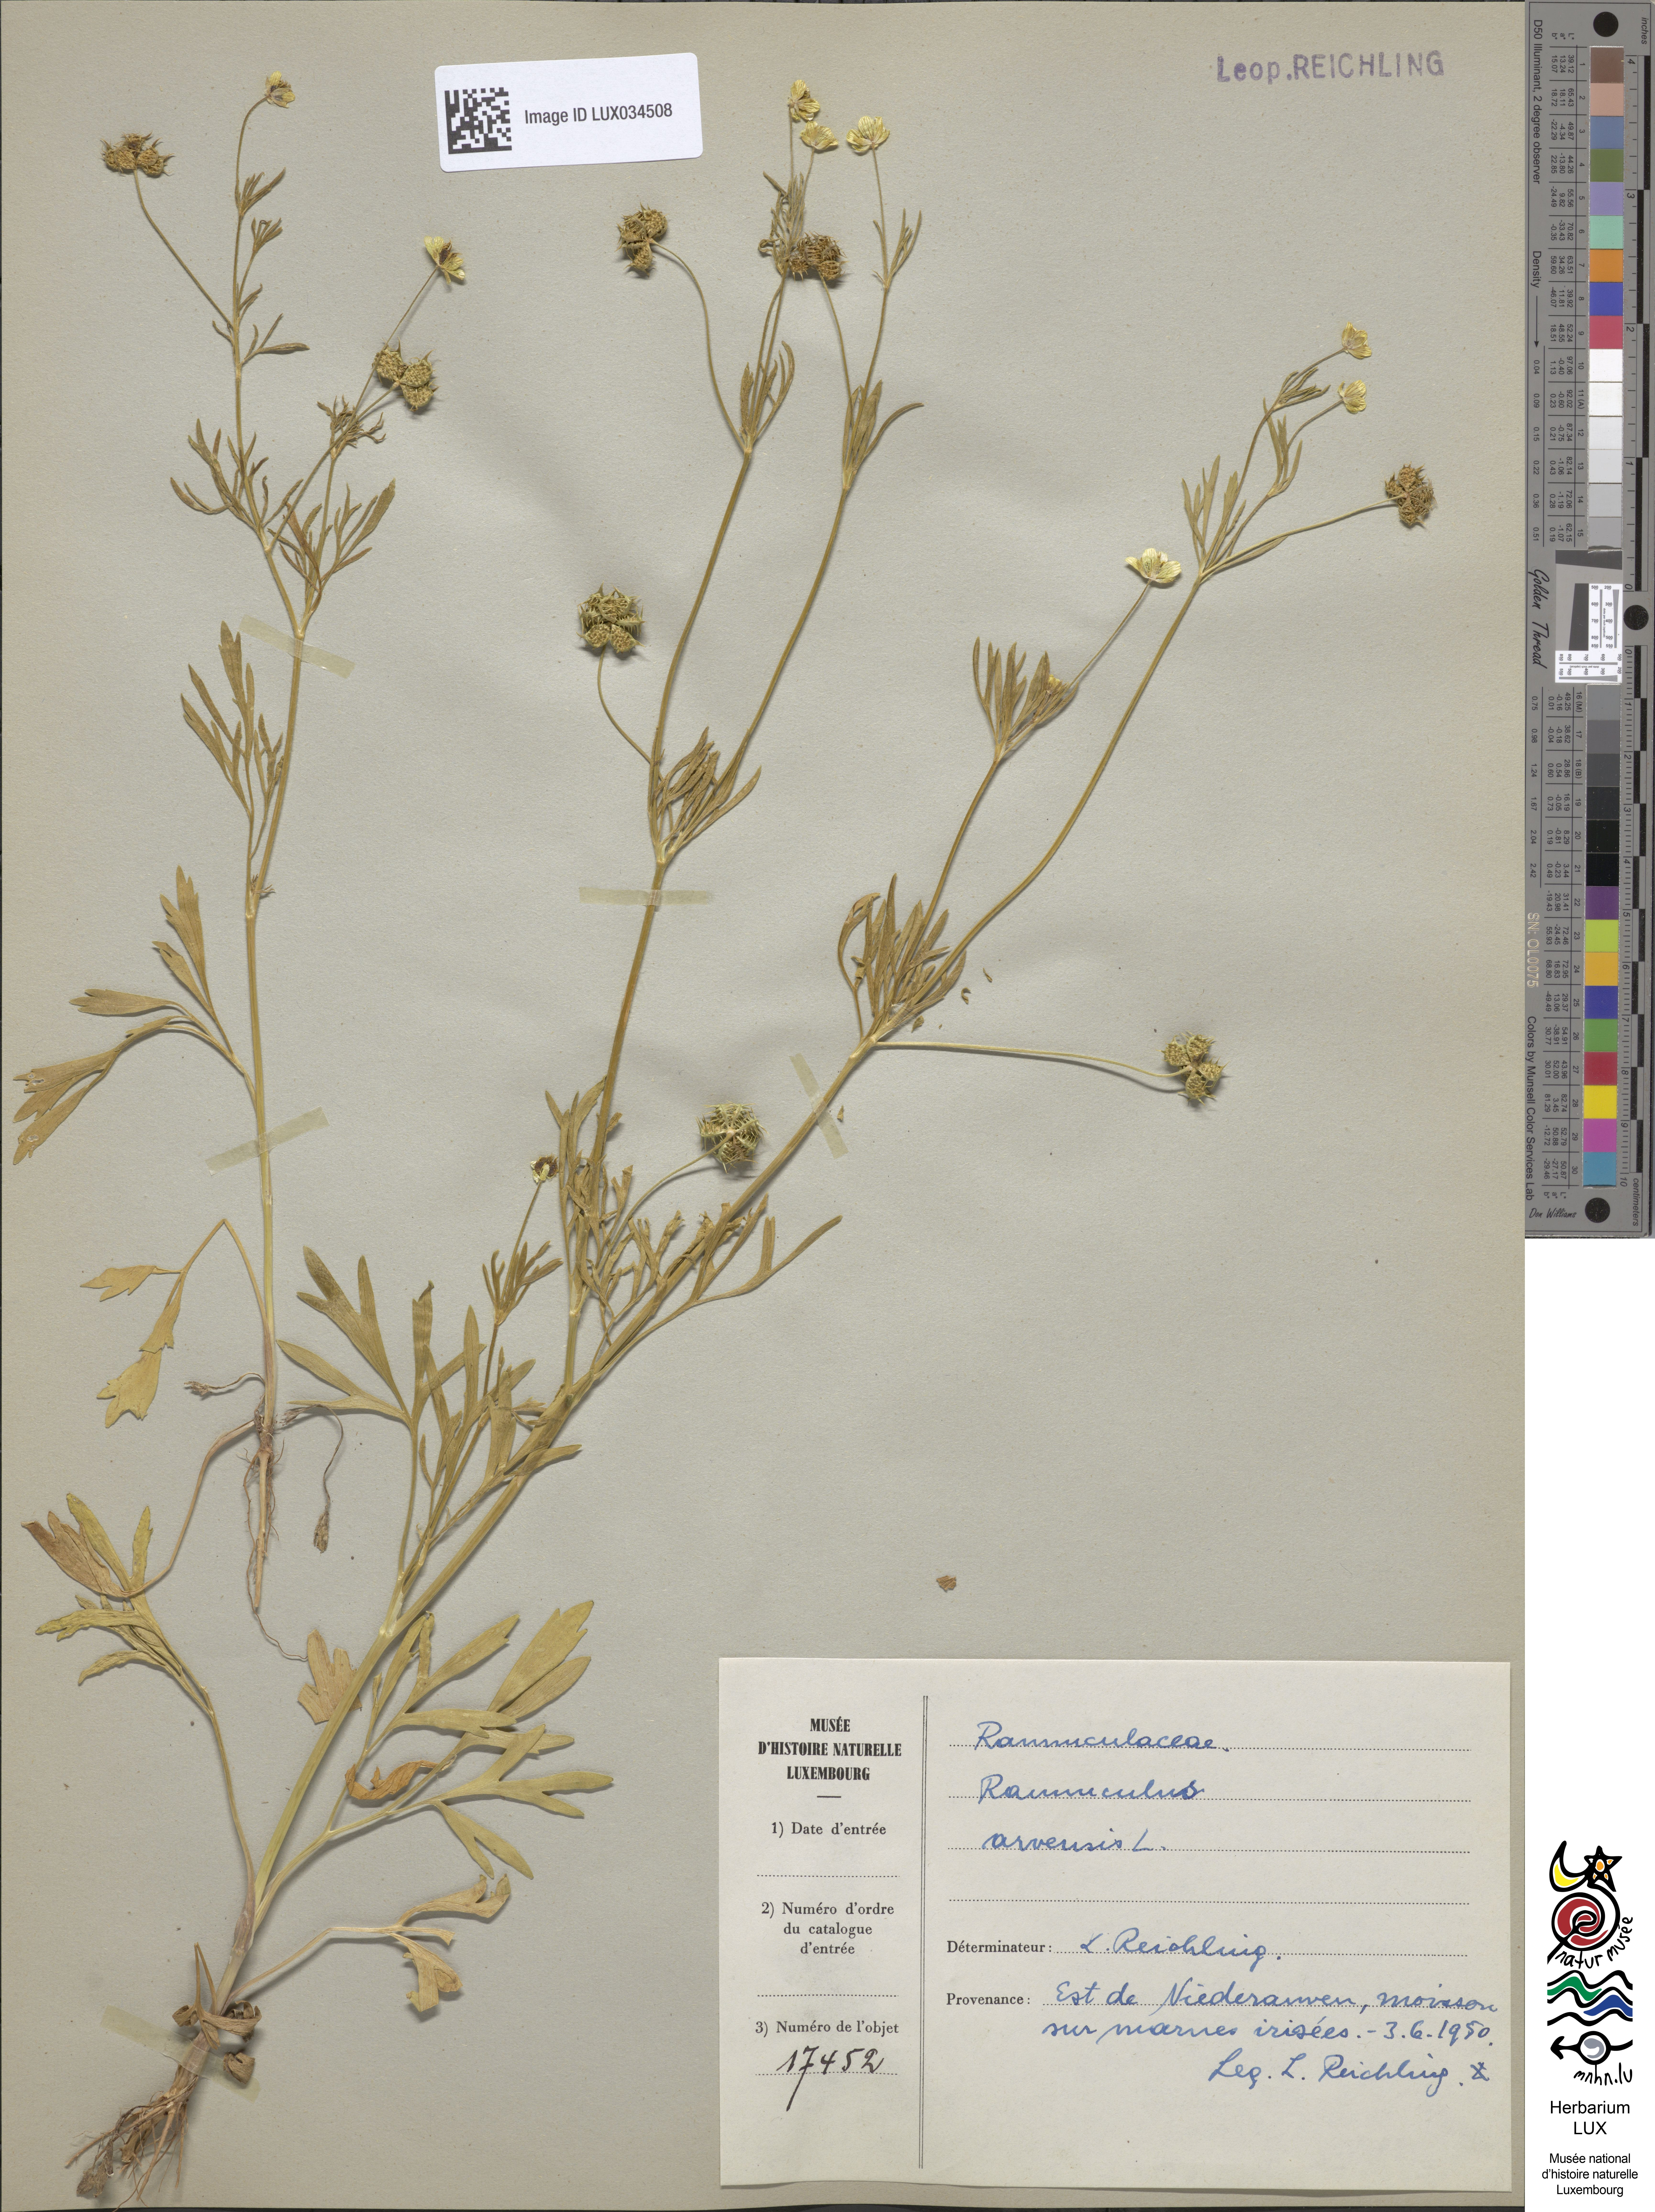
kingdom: Plantae
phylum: Tracheophyta
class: Magnoliopsida
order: Ranunculales
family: Ranunculaceae
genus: Ranunculus
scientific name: Ranunculus arvensis
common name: Corn buttercup
